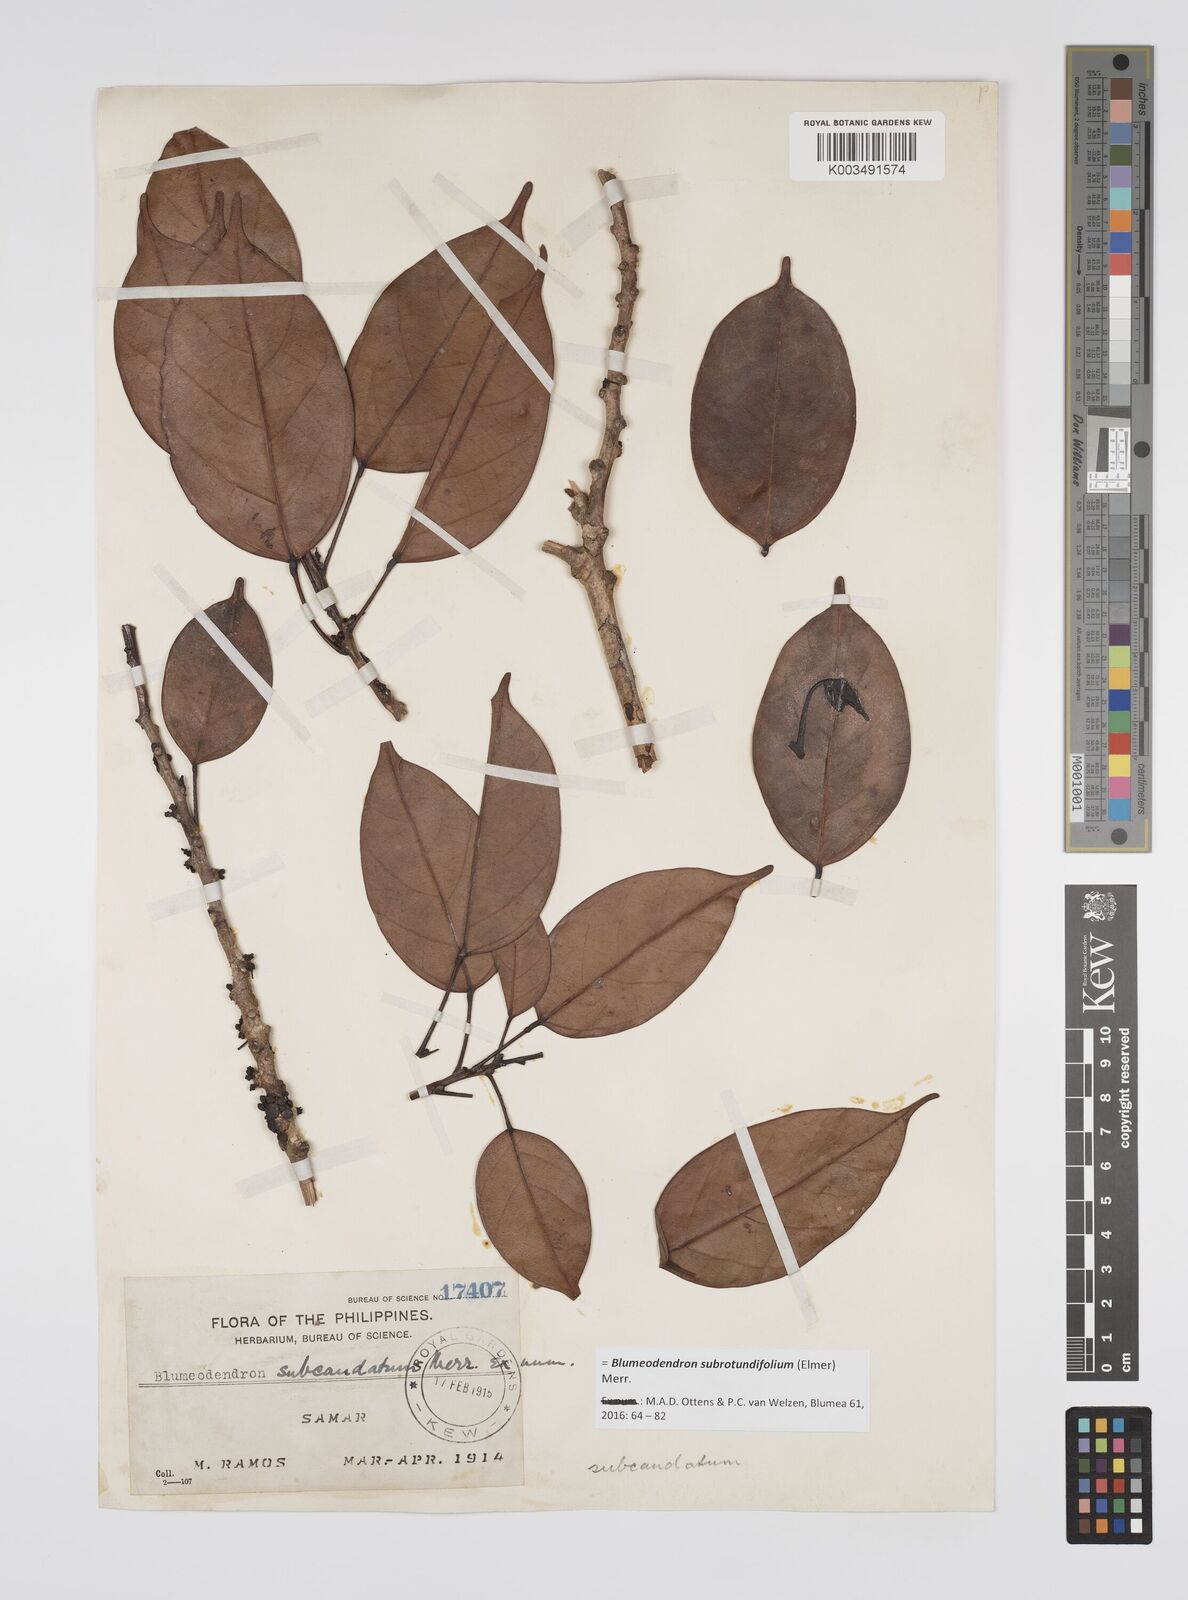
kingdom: Plantae
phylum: Tracheophyta
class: Magnoliopsida
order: Malpighiales
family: Euphorbiaceae
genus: Blumeodendron
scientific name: Blumeodendron subrotundifolium
